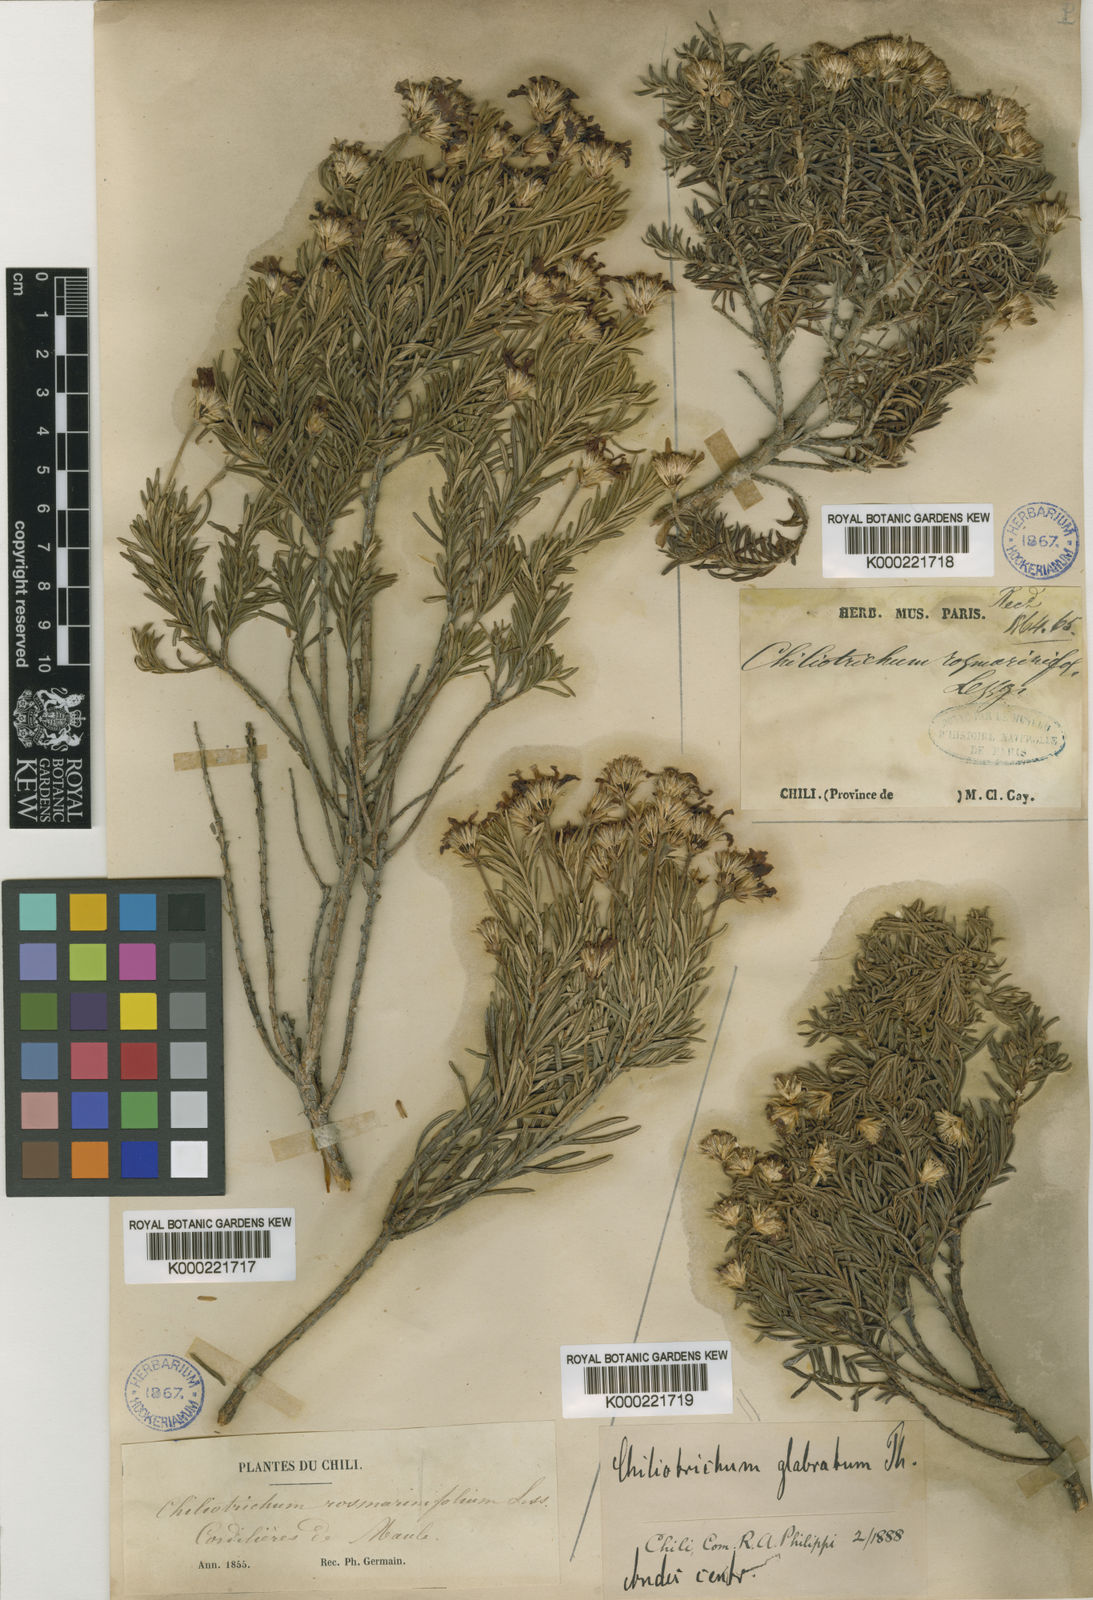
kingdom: Plantae
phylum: Tracheophyta
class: Magnoliopsida
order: Asterales
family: Asteraceae
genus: Chiliotrichum
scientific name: Chiliotrichum diffusum
